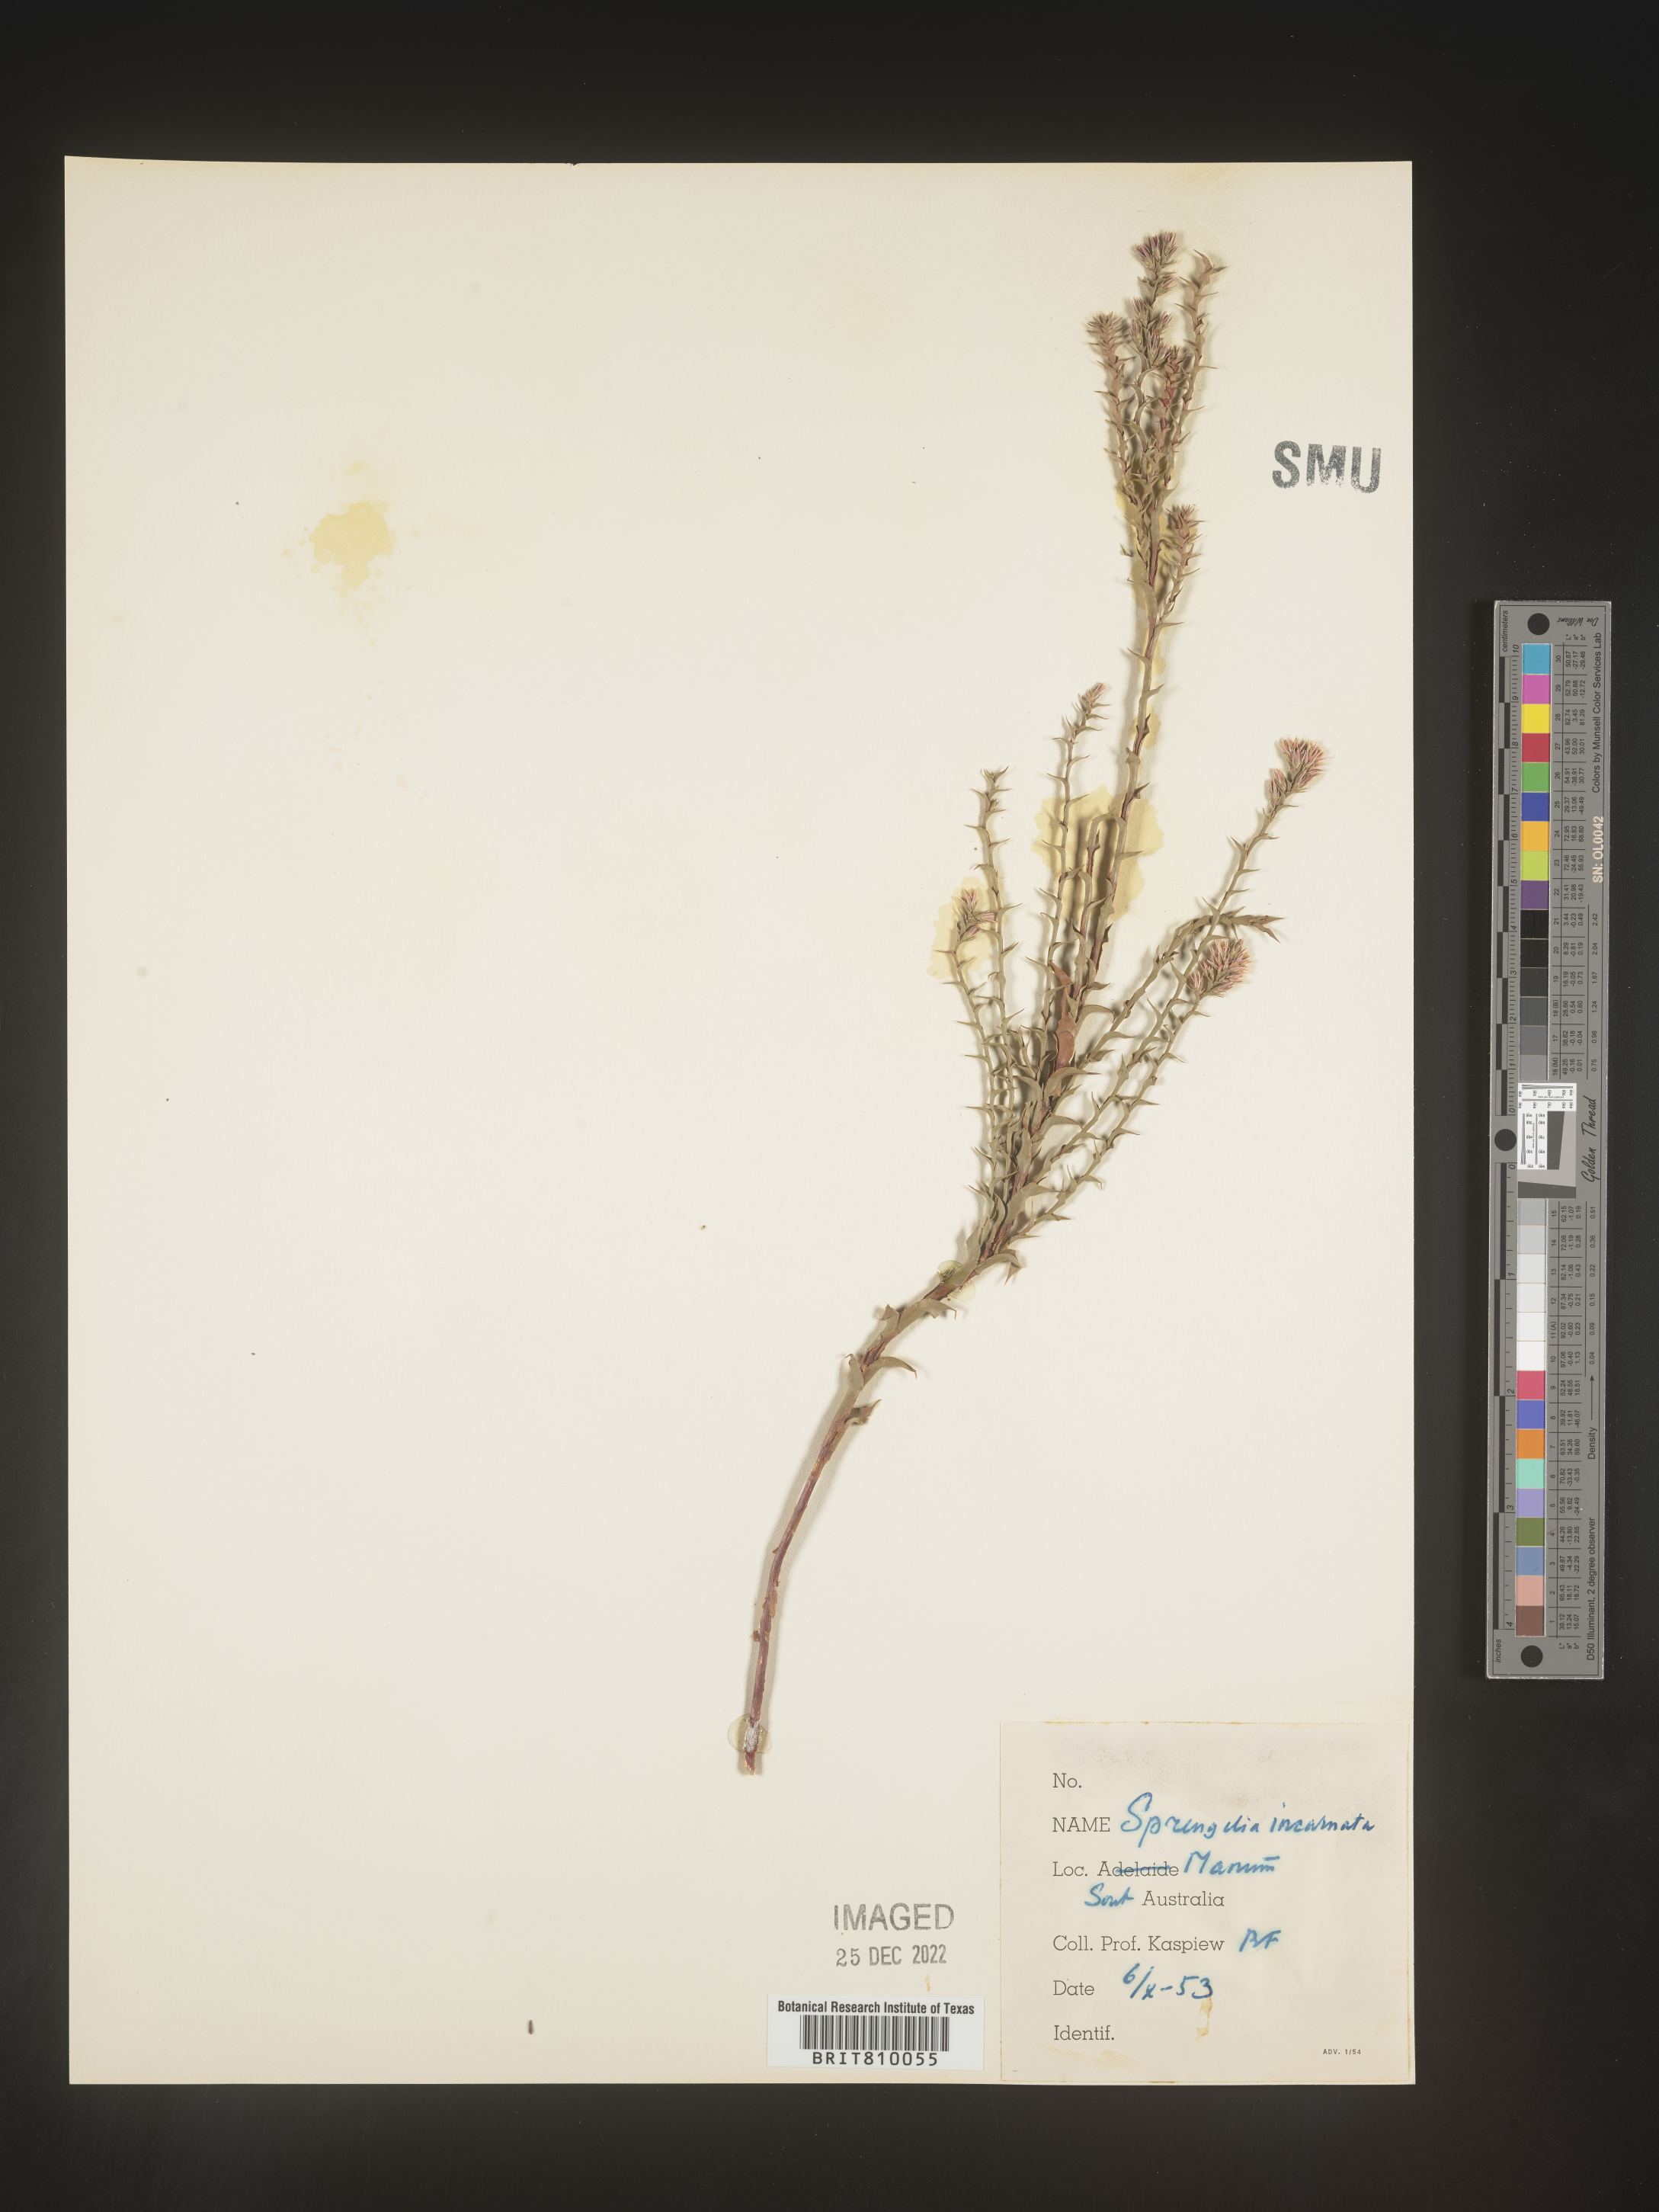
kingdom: Plantae
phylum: Tracheophyta
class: Magnoliopsida
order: Ericales
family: Ericaceae
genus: Sprengelia
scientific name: Sprengelia
